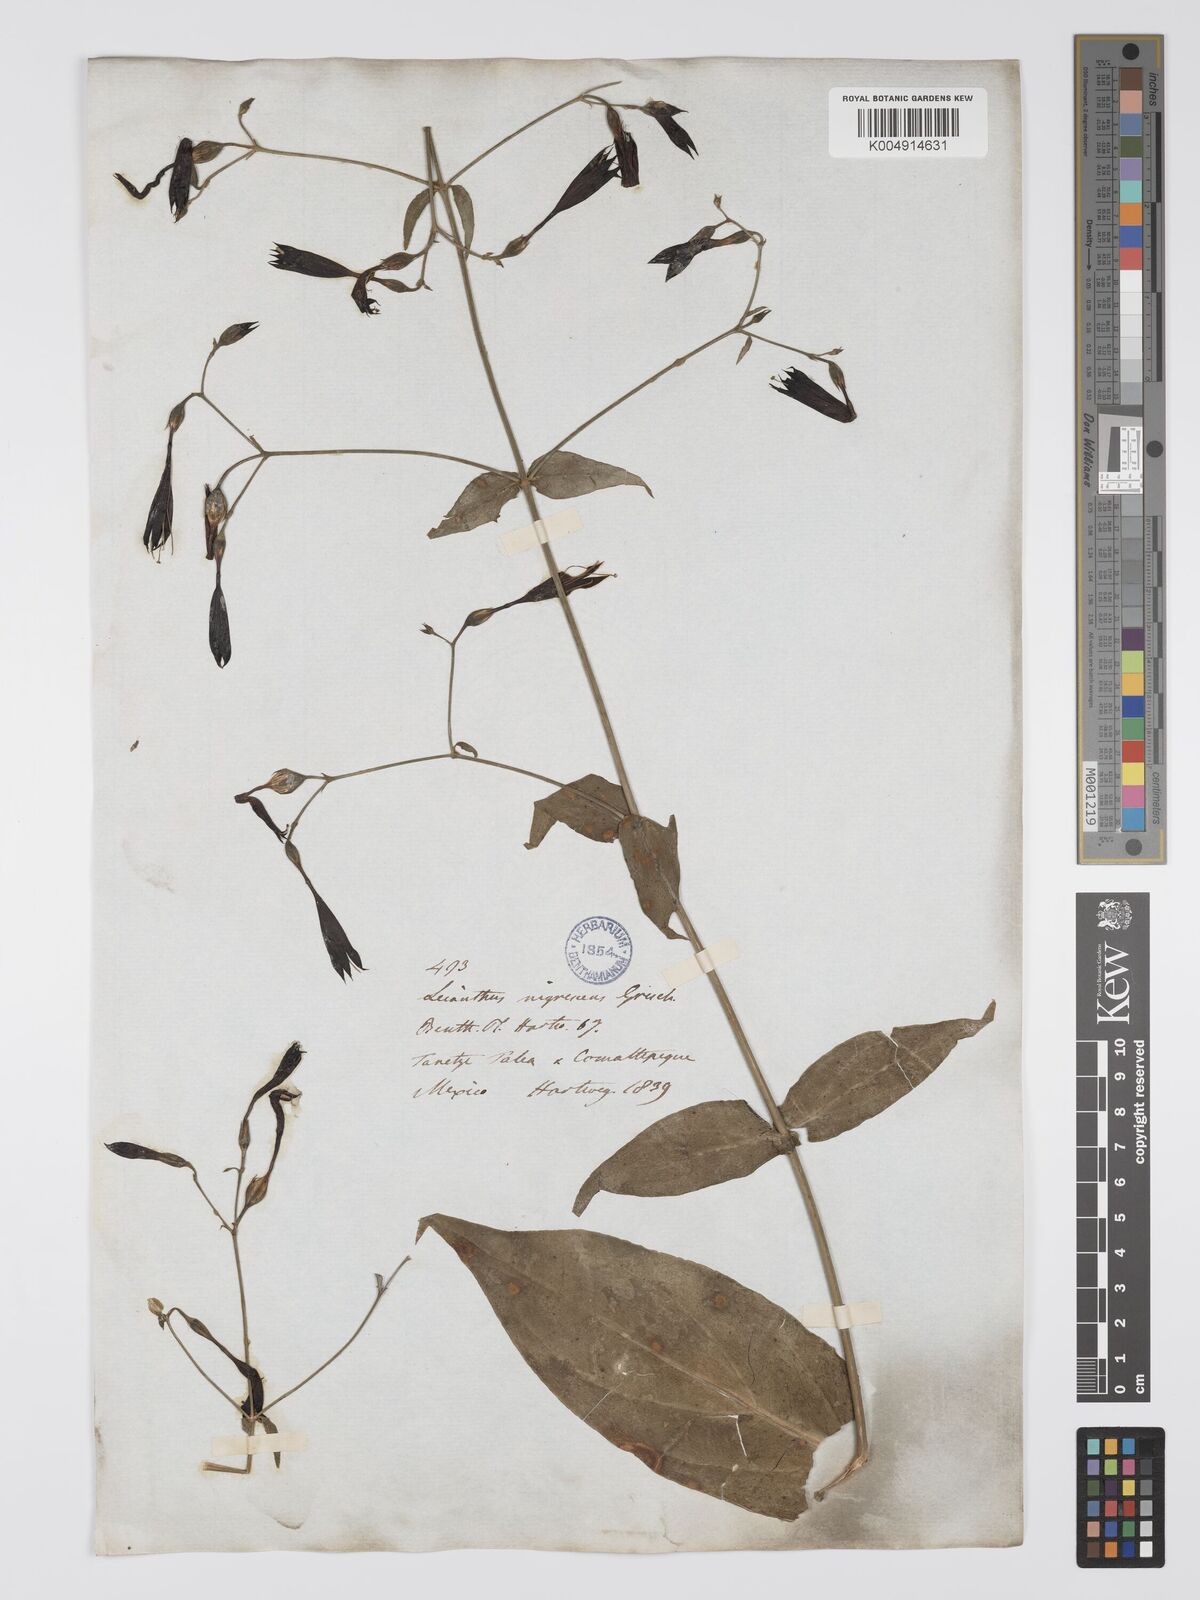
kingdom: Plantae
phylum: Tracheophyta
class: Magnoliopsida
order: Gentianales
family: Gentianaceae
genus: Lisianthius
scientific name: Lisianthius cuspidatus
